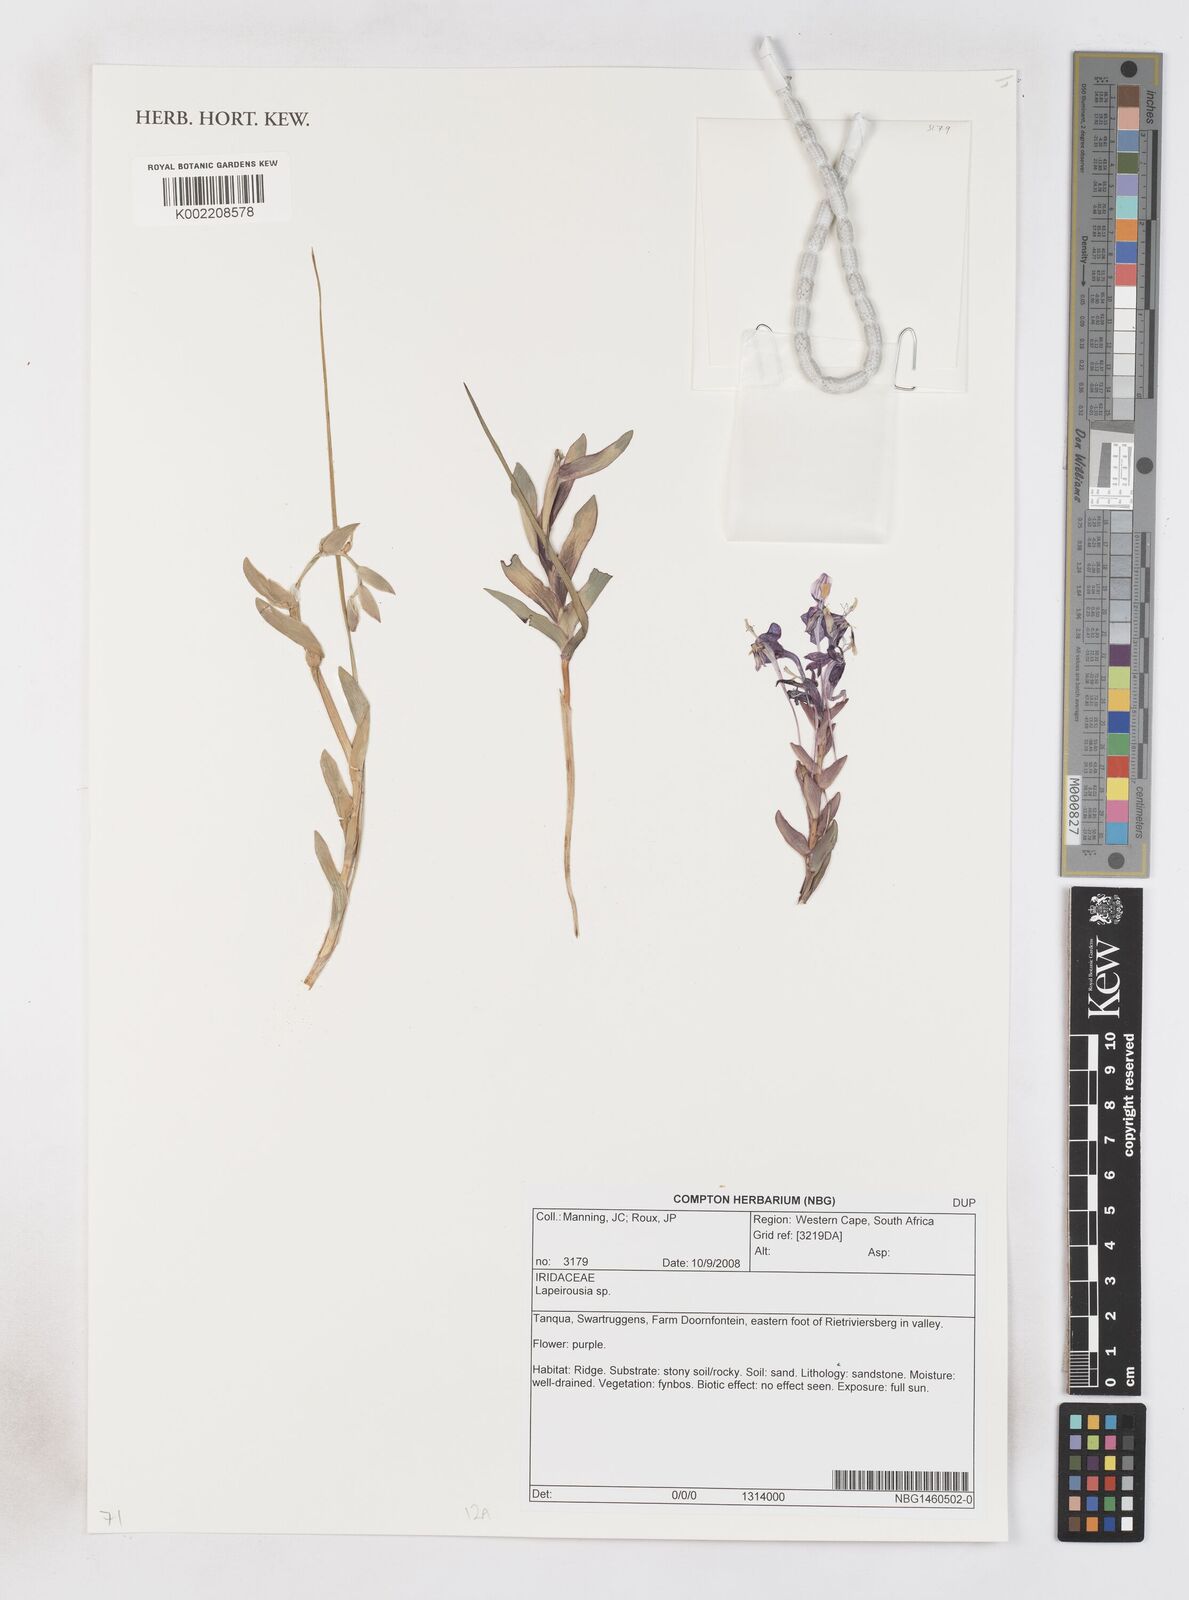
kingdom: Plantae
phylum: Tracheophyta
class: Liliopsida
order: Asparagales
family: Iridaceae
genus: Lapeirousia
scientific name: Lapeirousia
